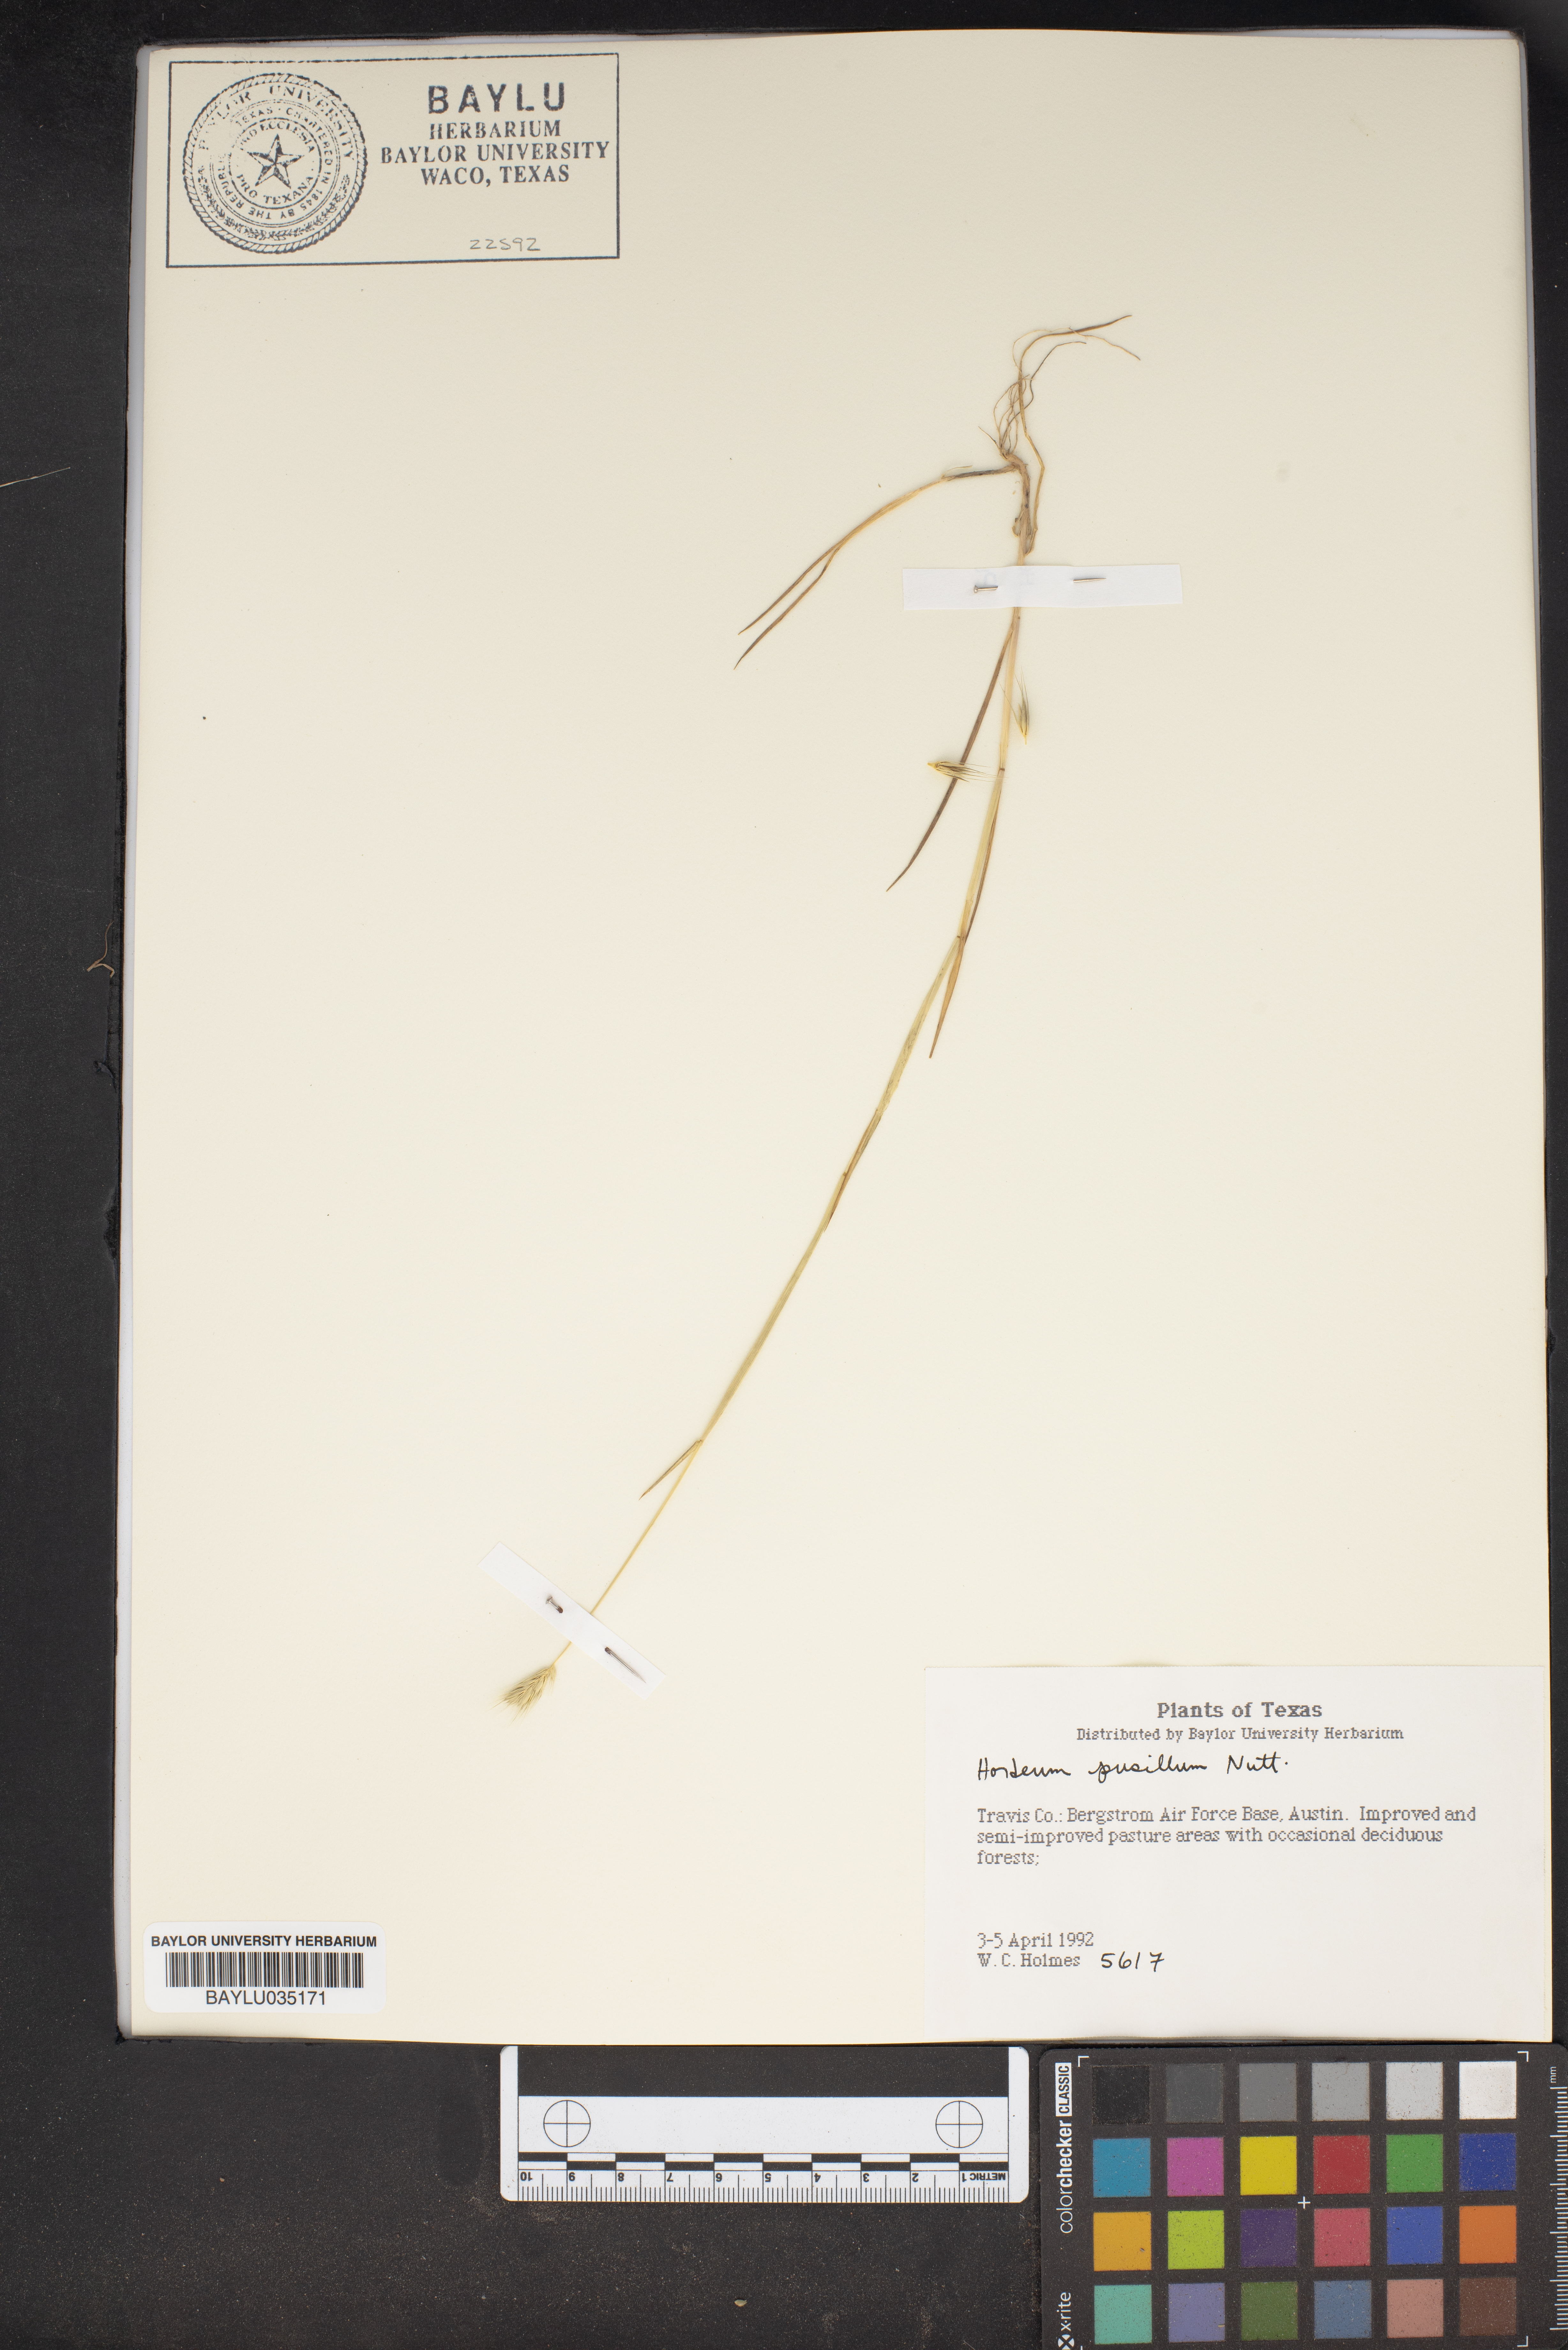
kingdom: Plantae
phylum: Tracheophyta
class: Liliopsida
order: Poales
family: Poaceae
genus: Hordeum
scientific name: Hordeum pusillum
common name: Little barley
